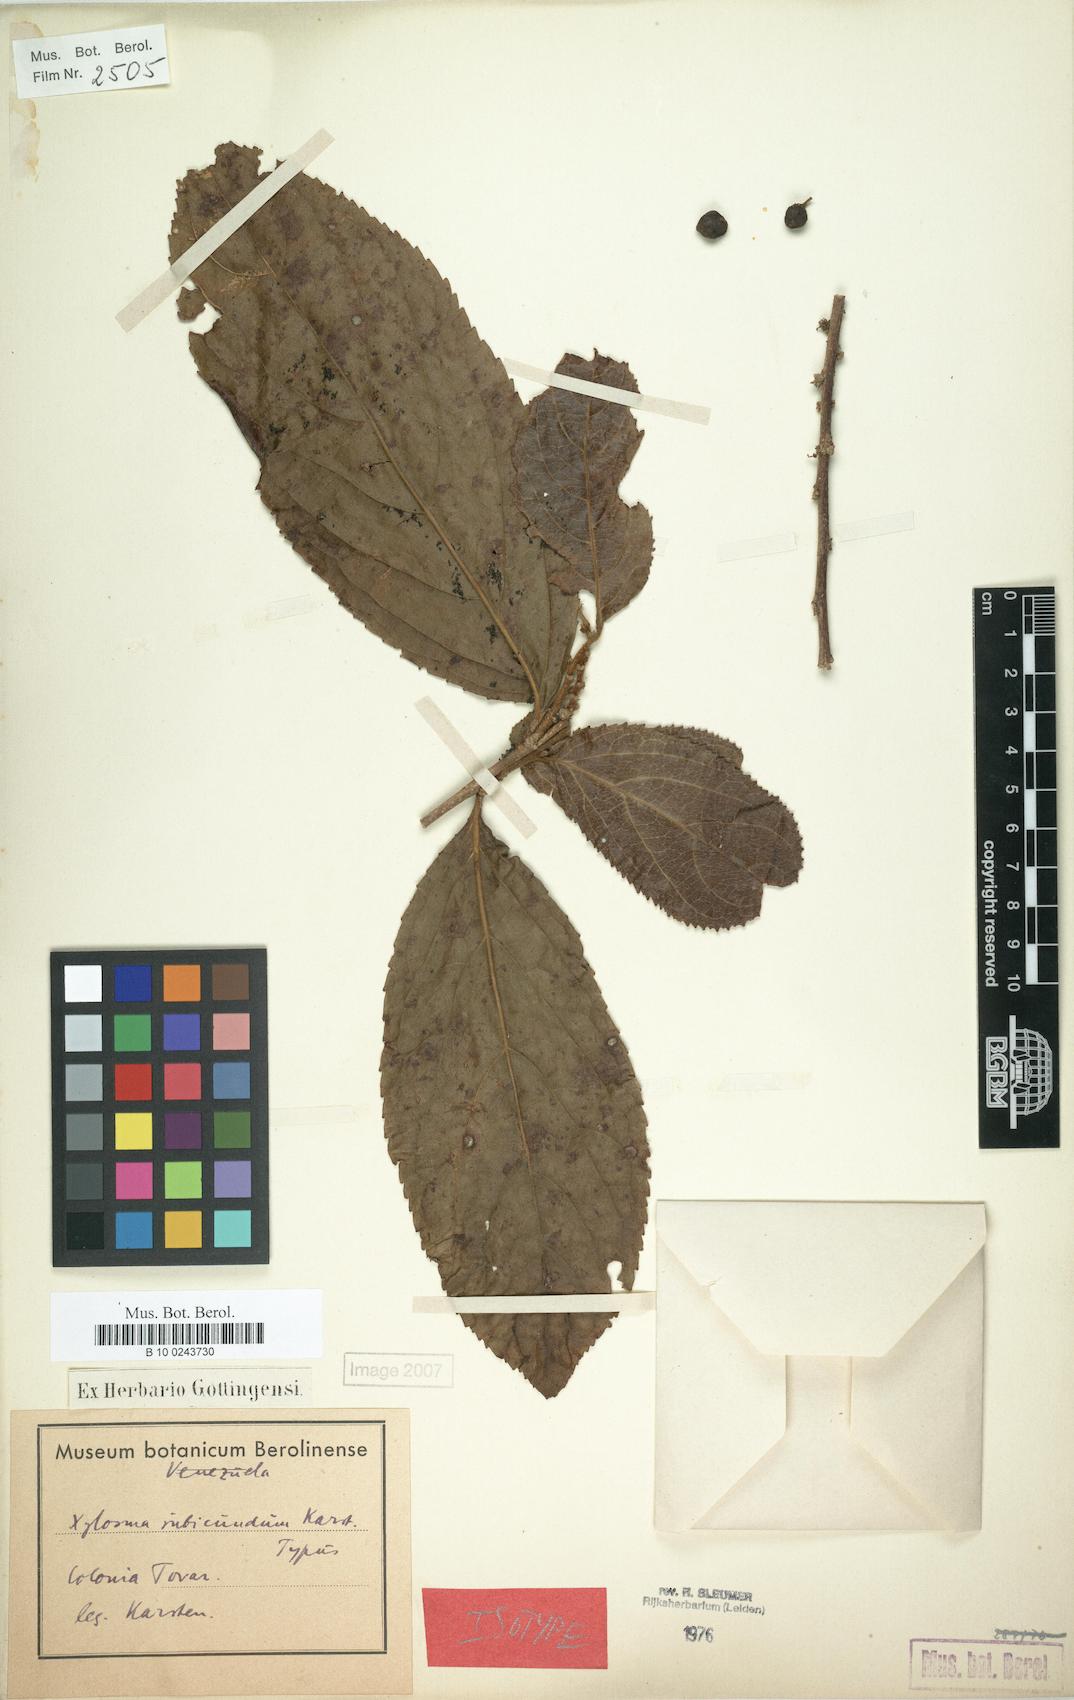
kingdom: Plantae
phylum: Tracheophyta
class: Magnoliopsida
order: Malpighiales
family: Salicaceae
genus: Xylosma
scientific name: Xylosma rubicundum
